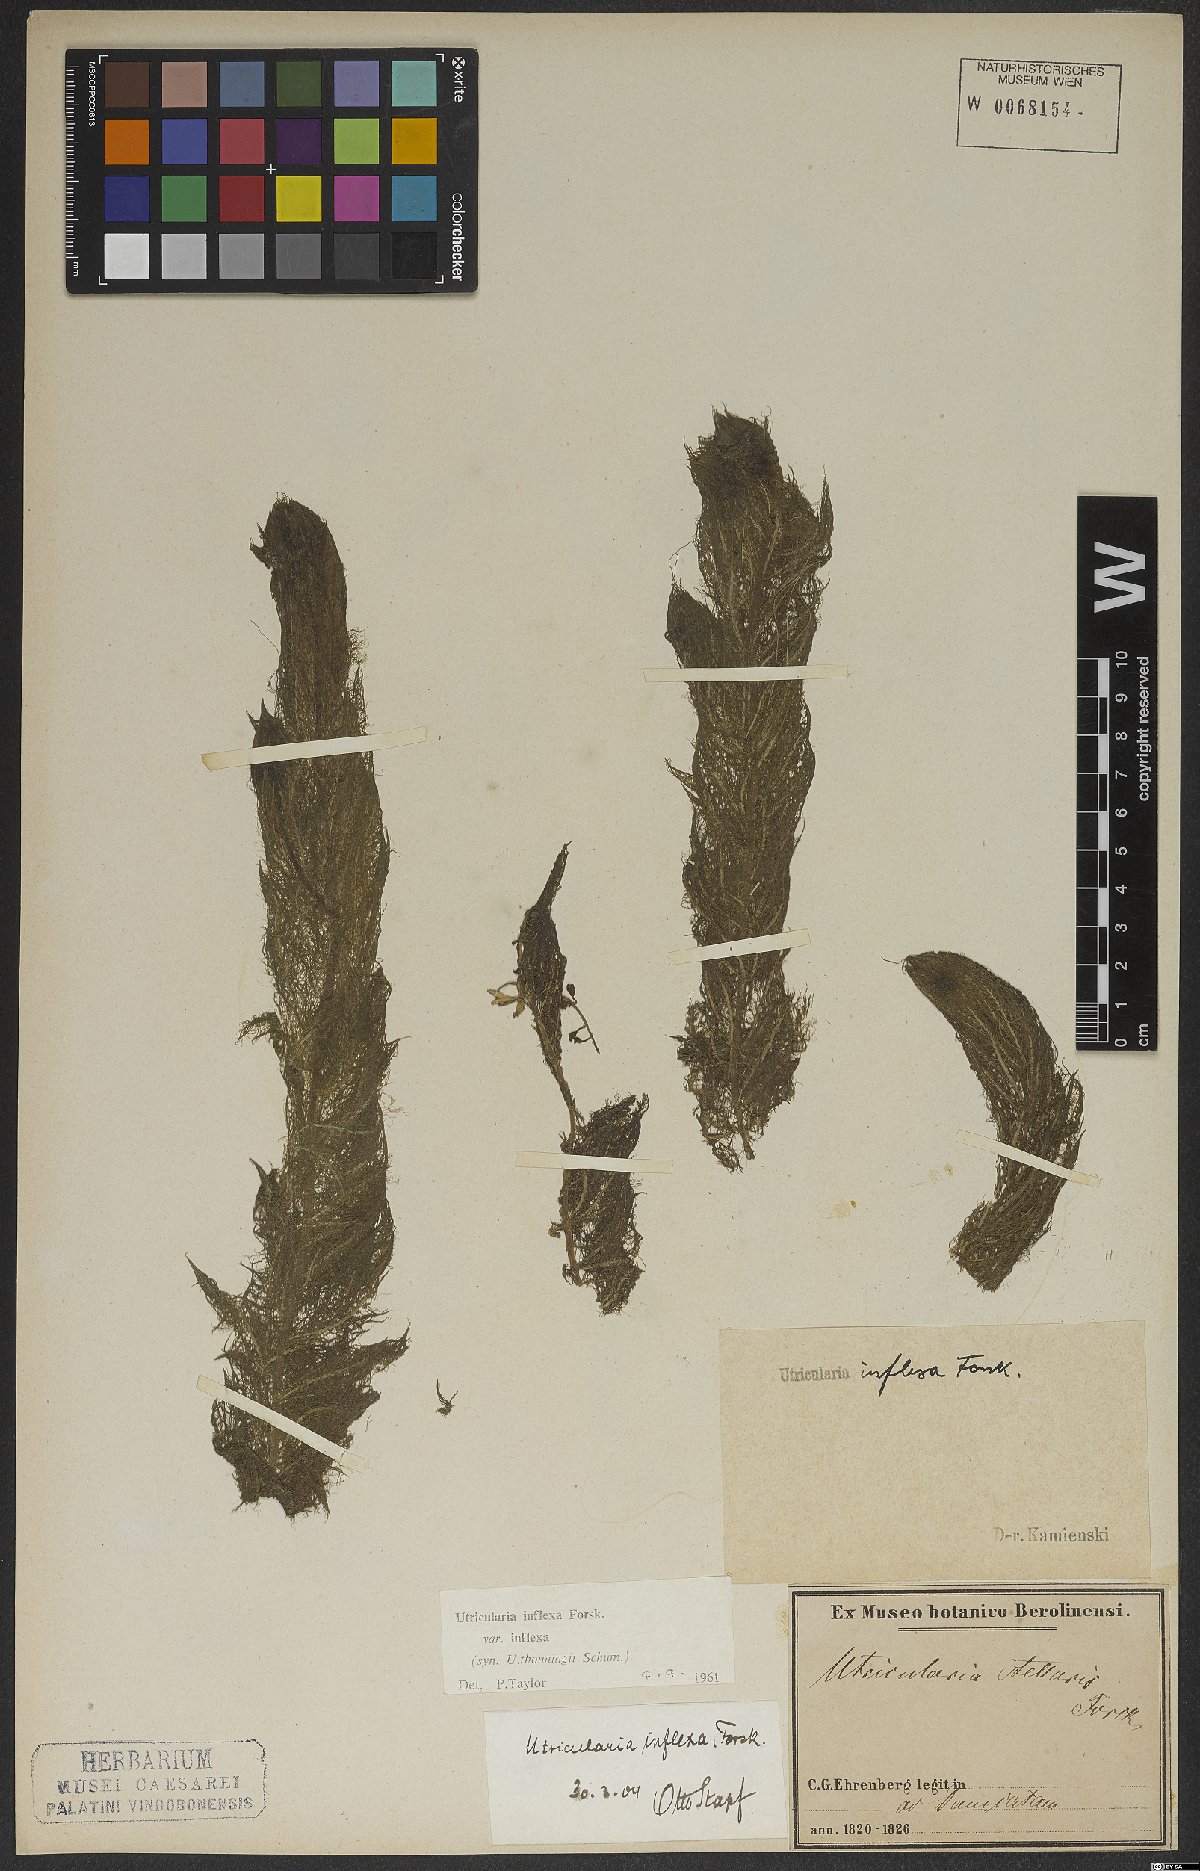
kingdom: Plantae
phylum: Tracheophyta
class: Magnoliopsida
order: Lamiales
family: Lentibulariaceae
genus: Utricularia
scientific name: Utricularia inflexa
